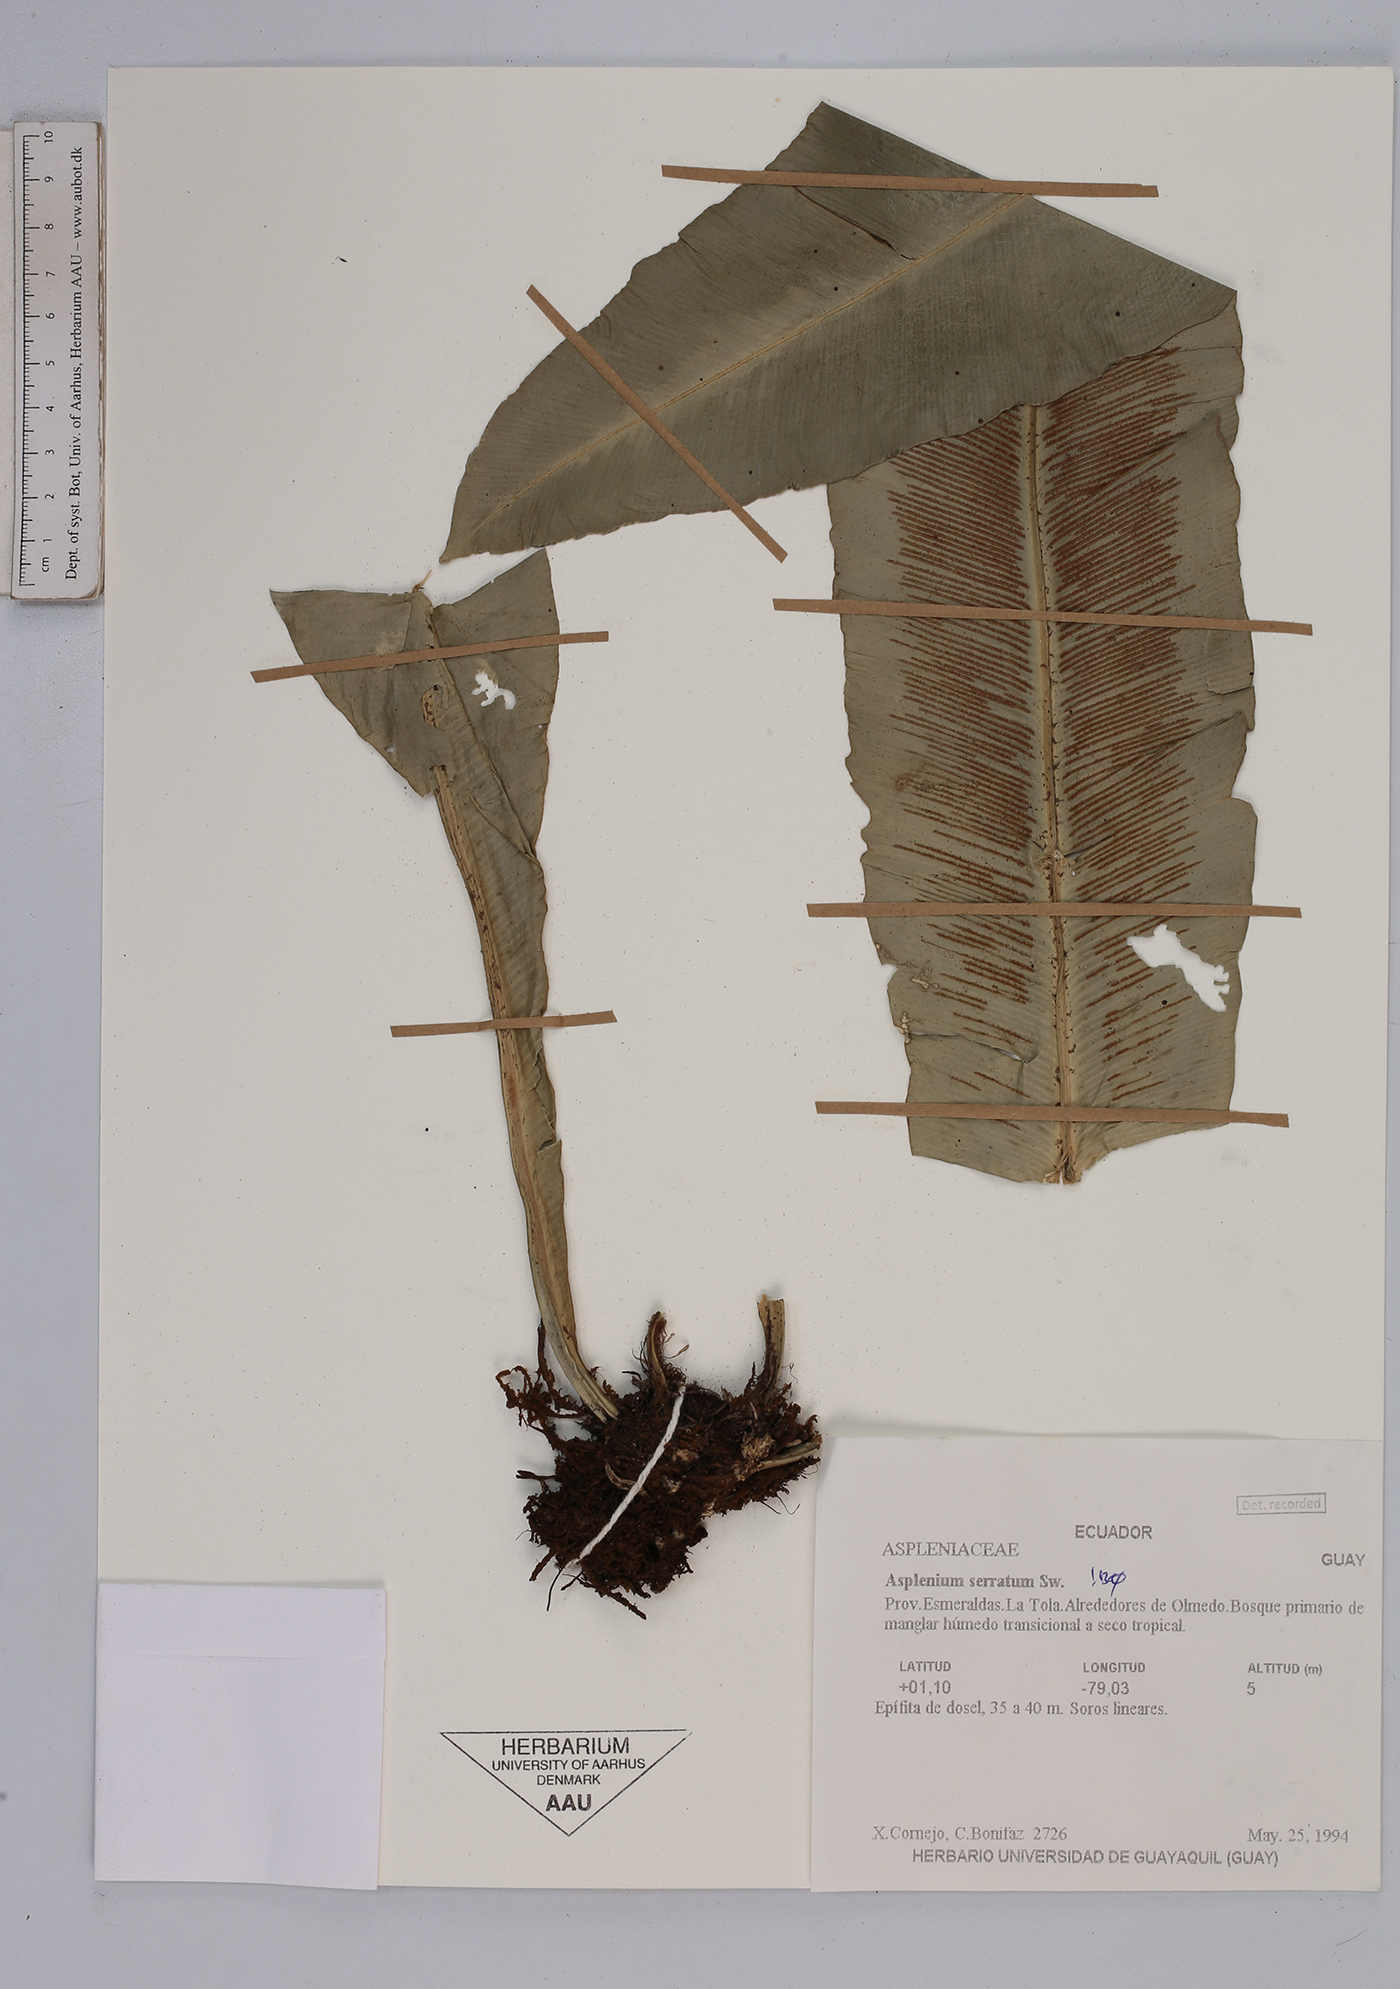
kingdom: Plantae
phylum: Tracheophyta
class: Polypodiopsida
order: Polypodiales
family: Aspleniaceae
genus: Asplenium
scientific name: Asplenium serratum
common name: Wild birdnest fern
